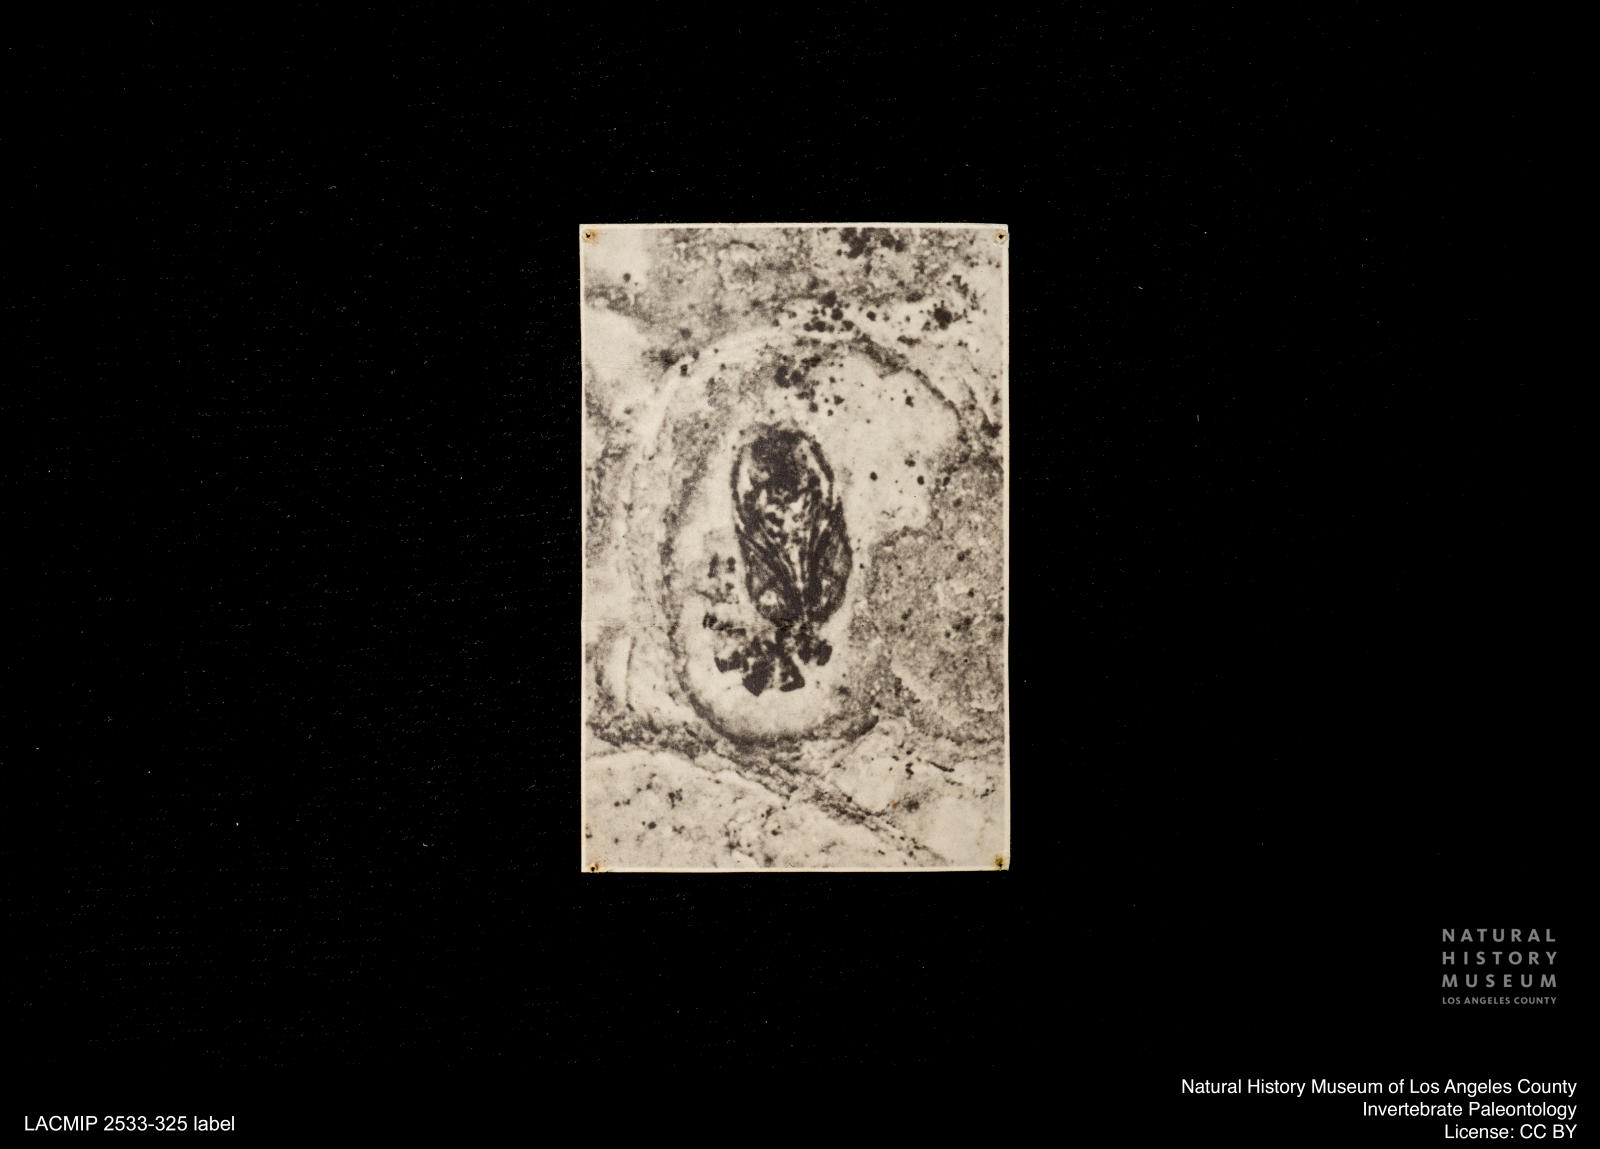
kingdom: Animalia
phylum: Arthropoda
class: Insecta
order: Diptera
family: Ceratopogonidae
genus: Ceratopogon
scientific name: Ceratopogon
